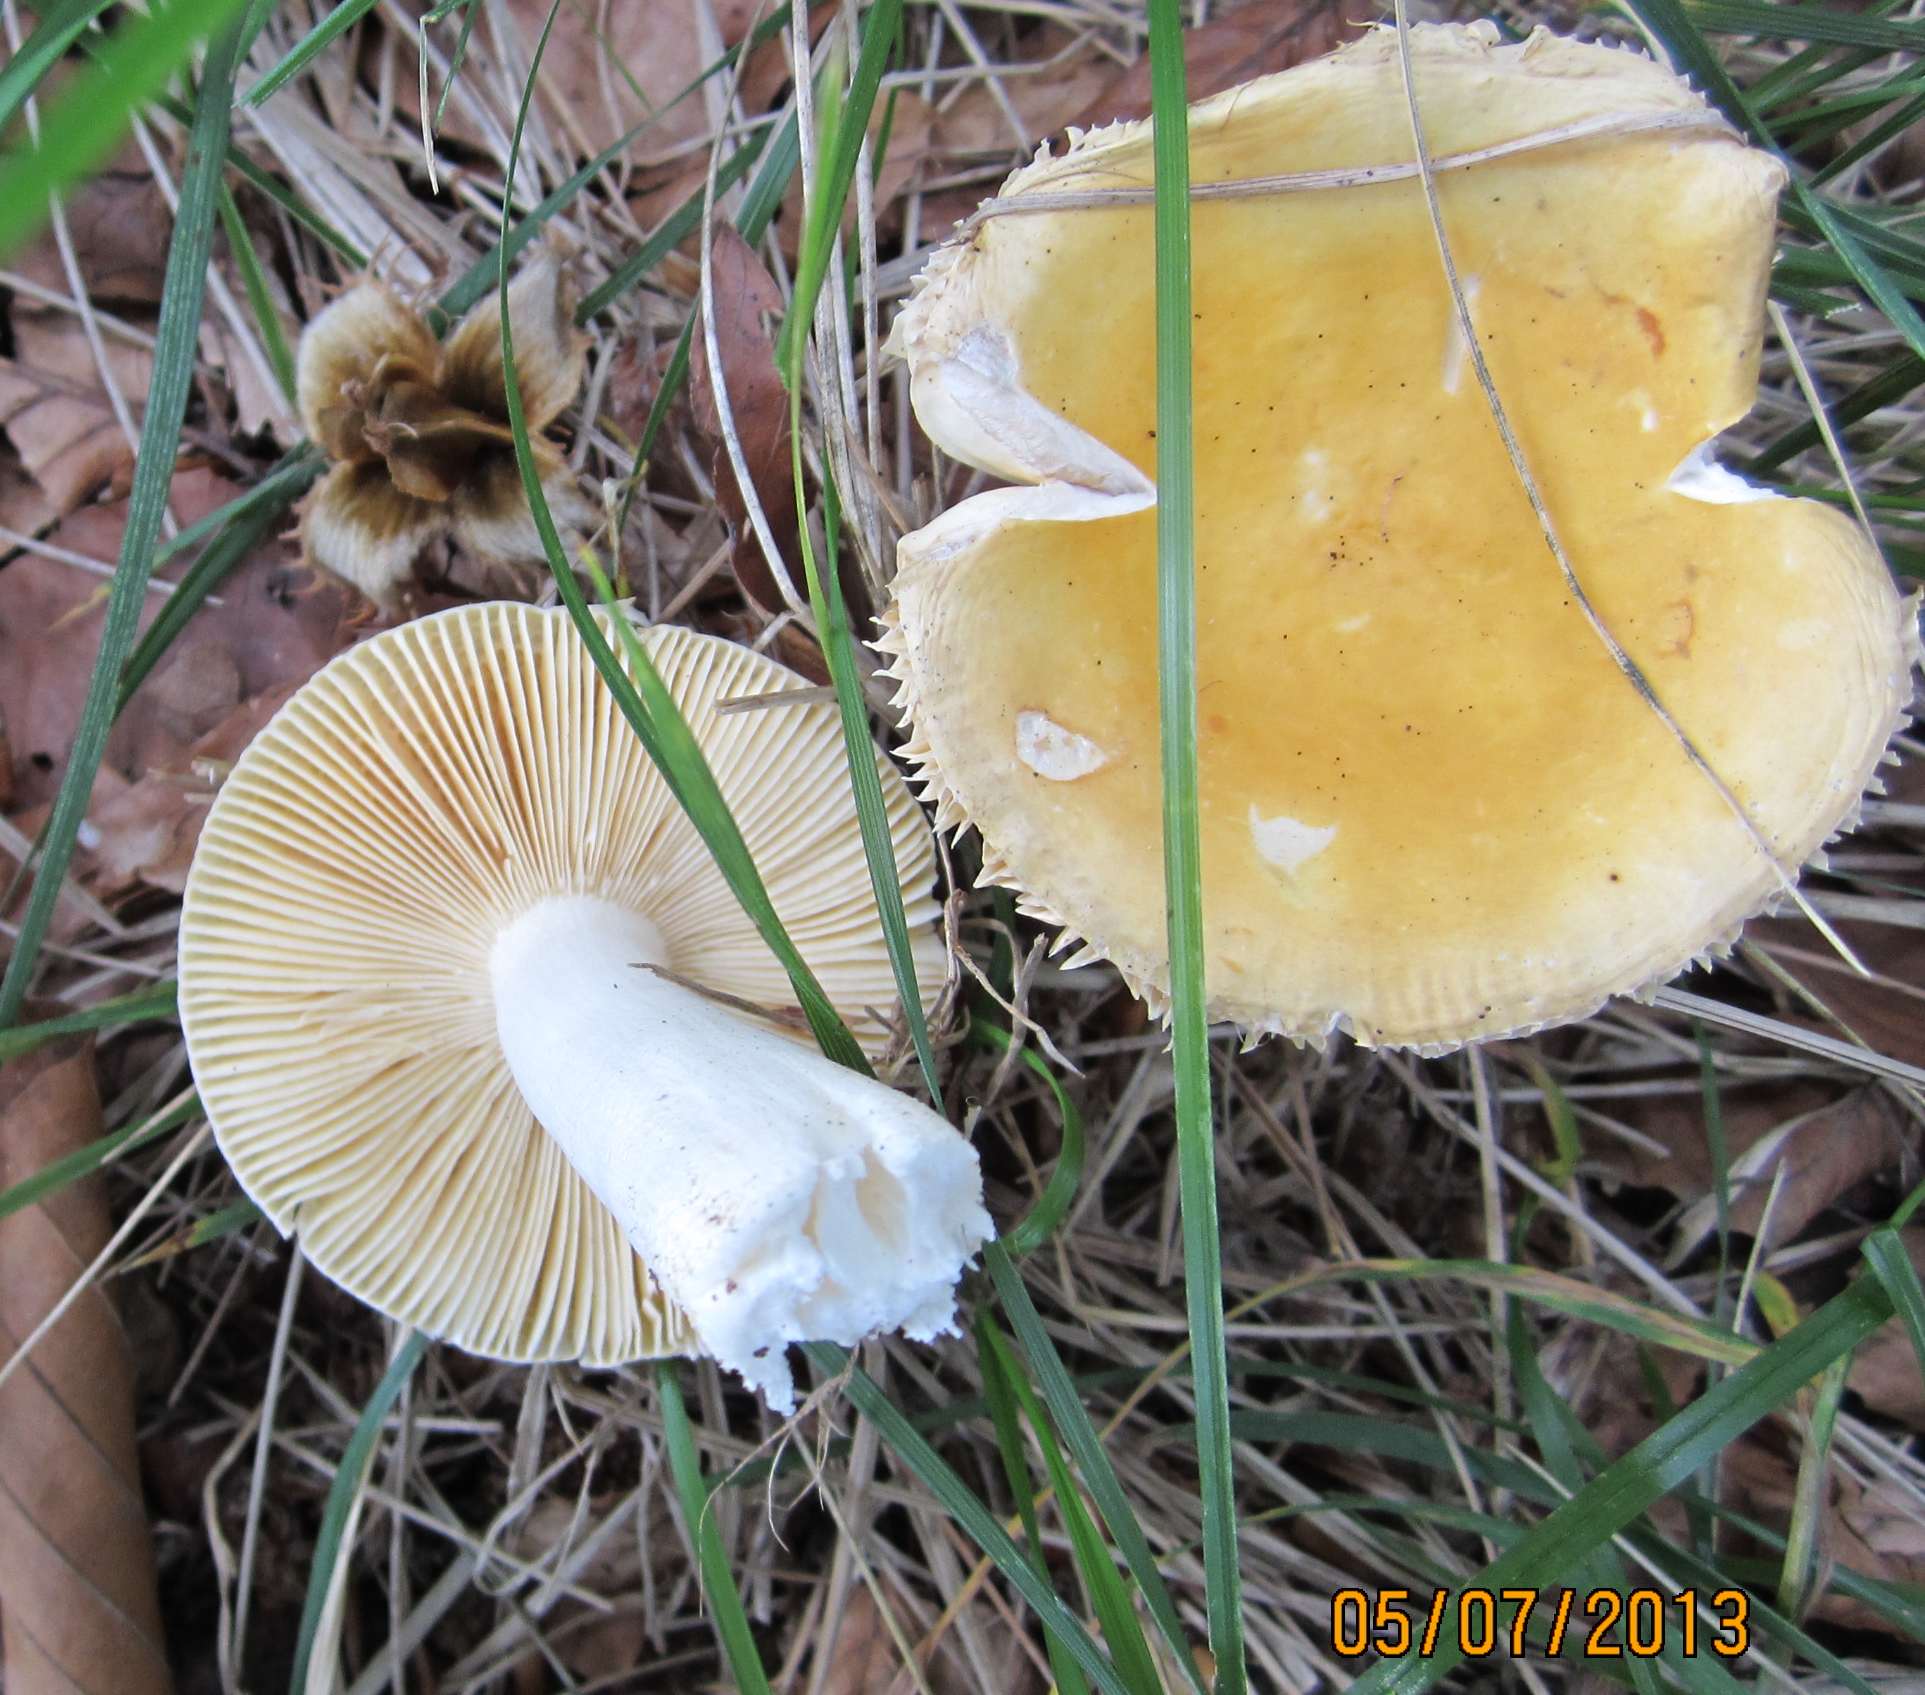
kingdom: Fungi
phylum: Basidiomycota
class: Agaricomycetes
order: Russulales
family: Russulaceae
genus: Russula
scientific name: Russula risigallina
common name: abrikos-skørhat
